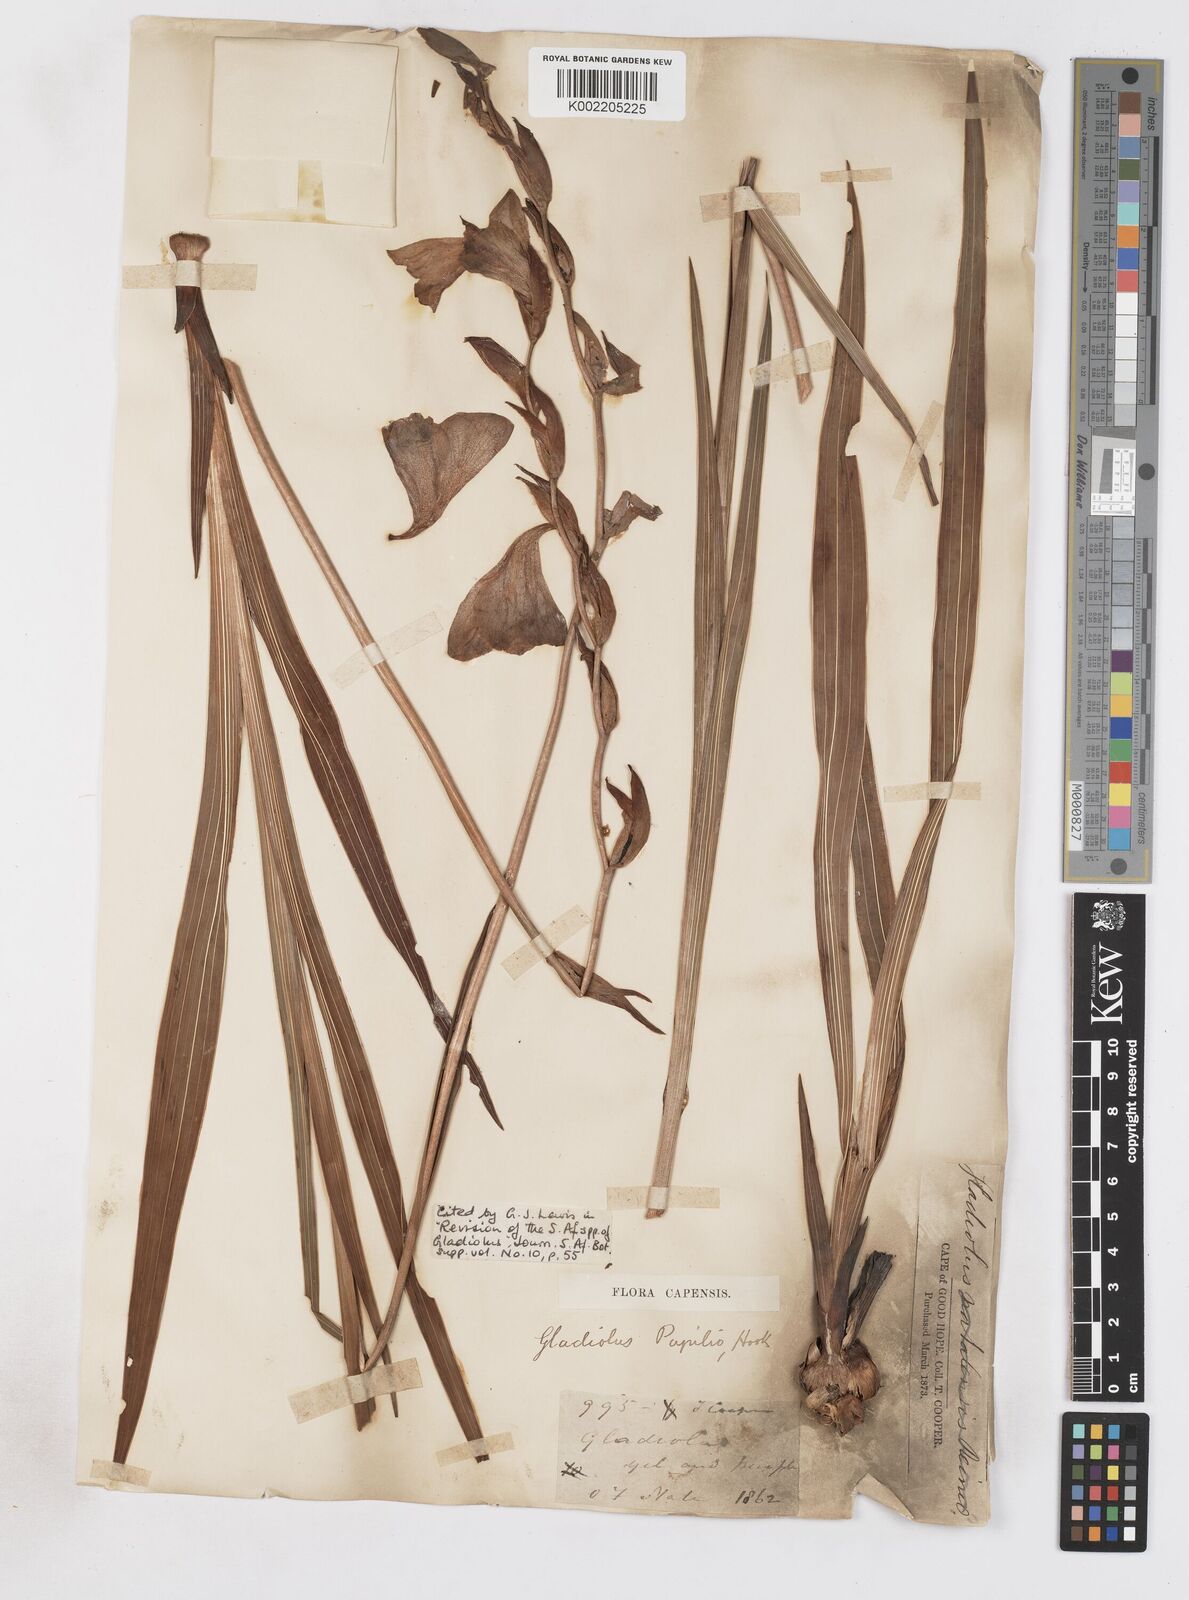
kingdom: Plantae
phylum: Tracheophyta
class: Liliopsida
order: Asparagales
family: Iridaceae
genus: Gladiolus
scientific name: Gladiolus papilio
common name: Goldblotch gladiolus
